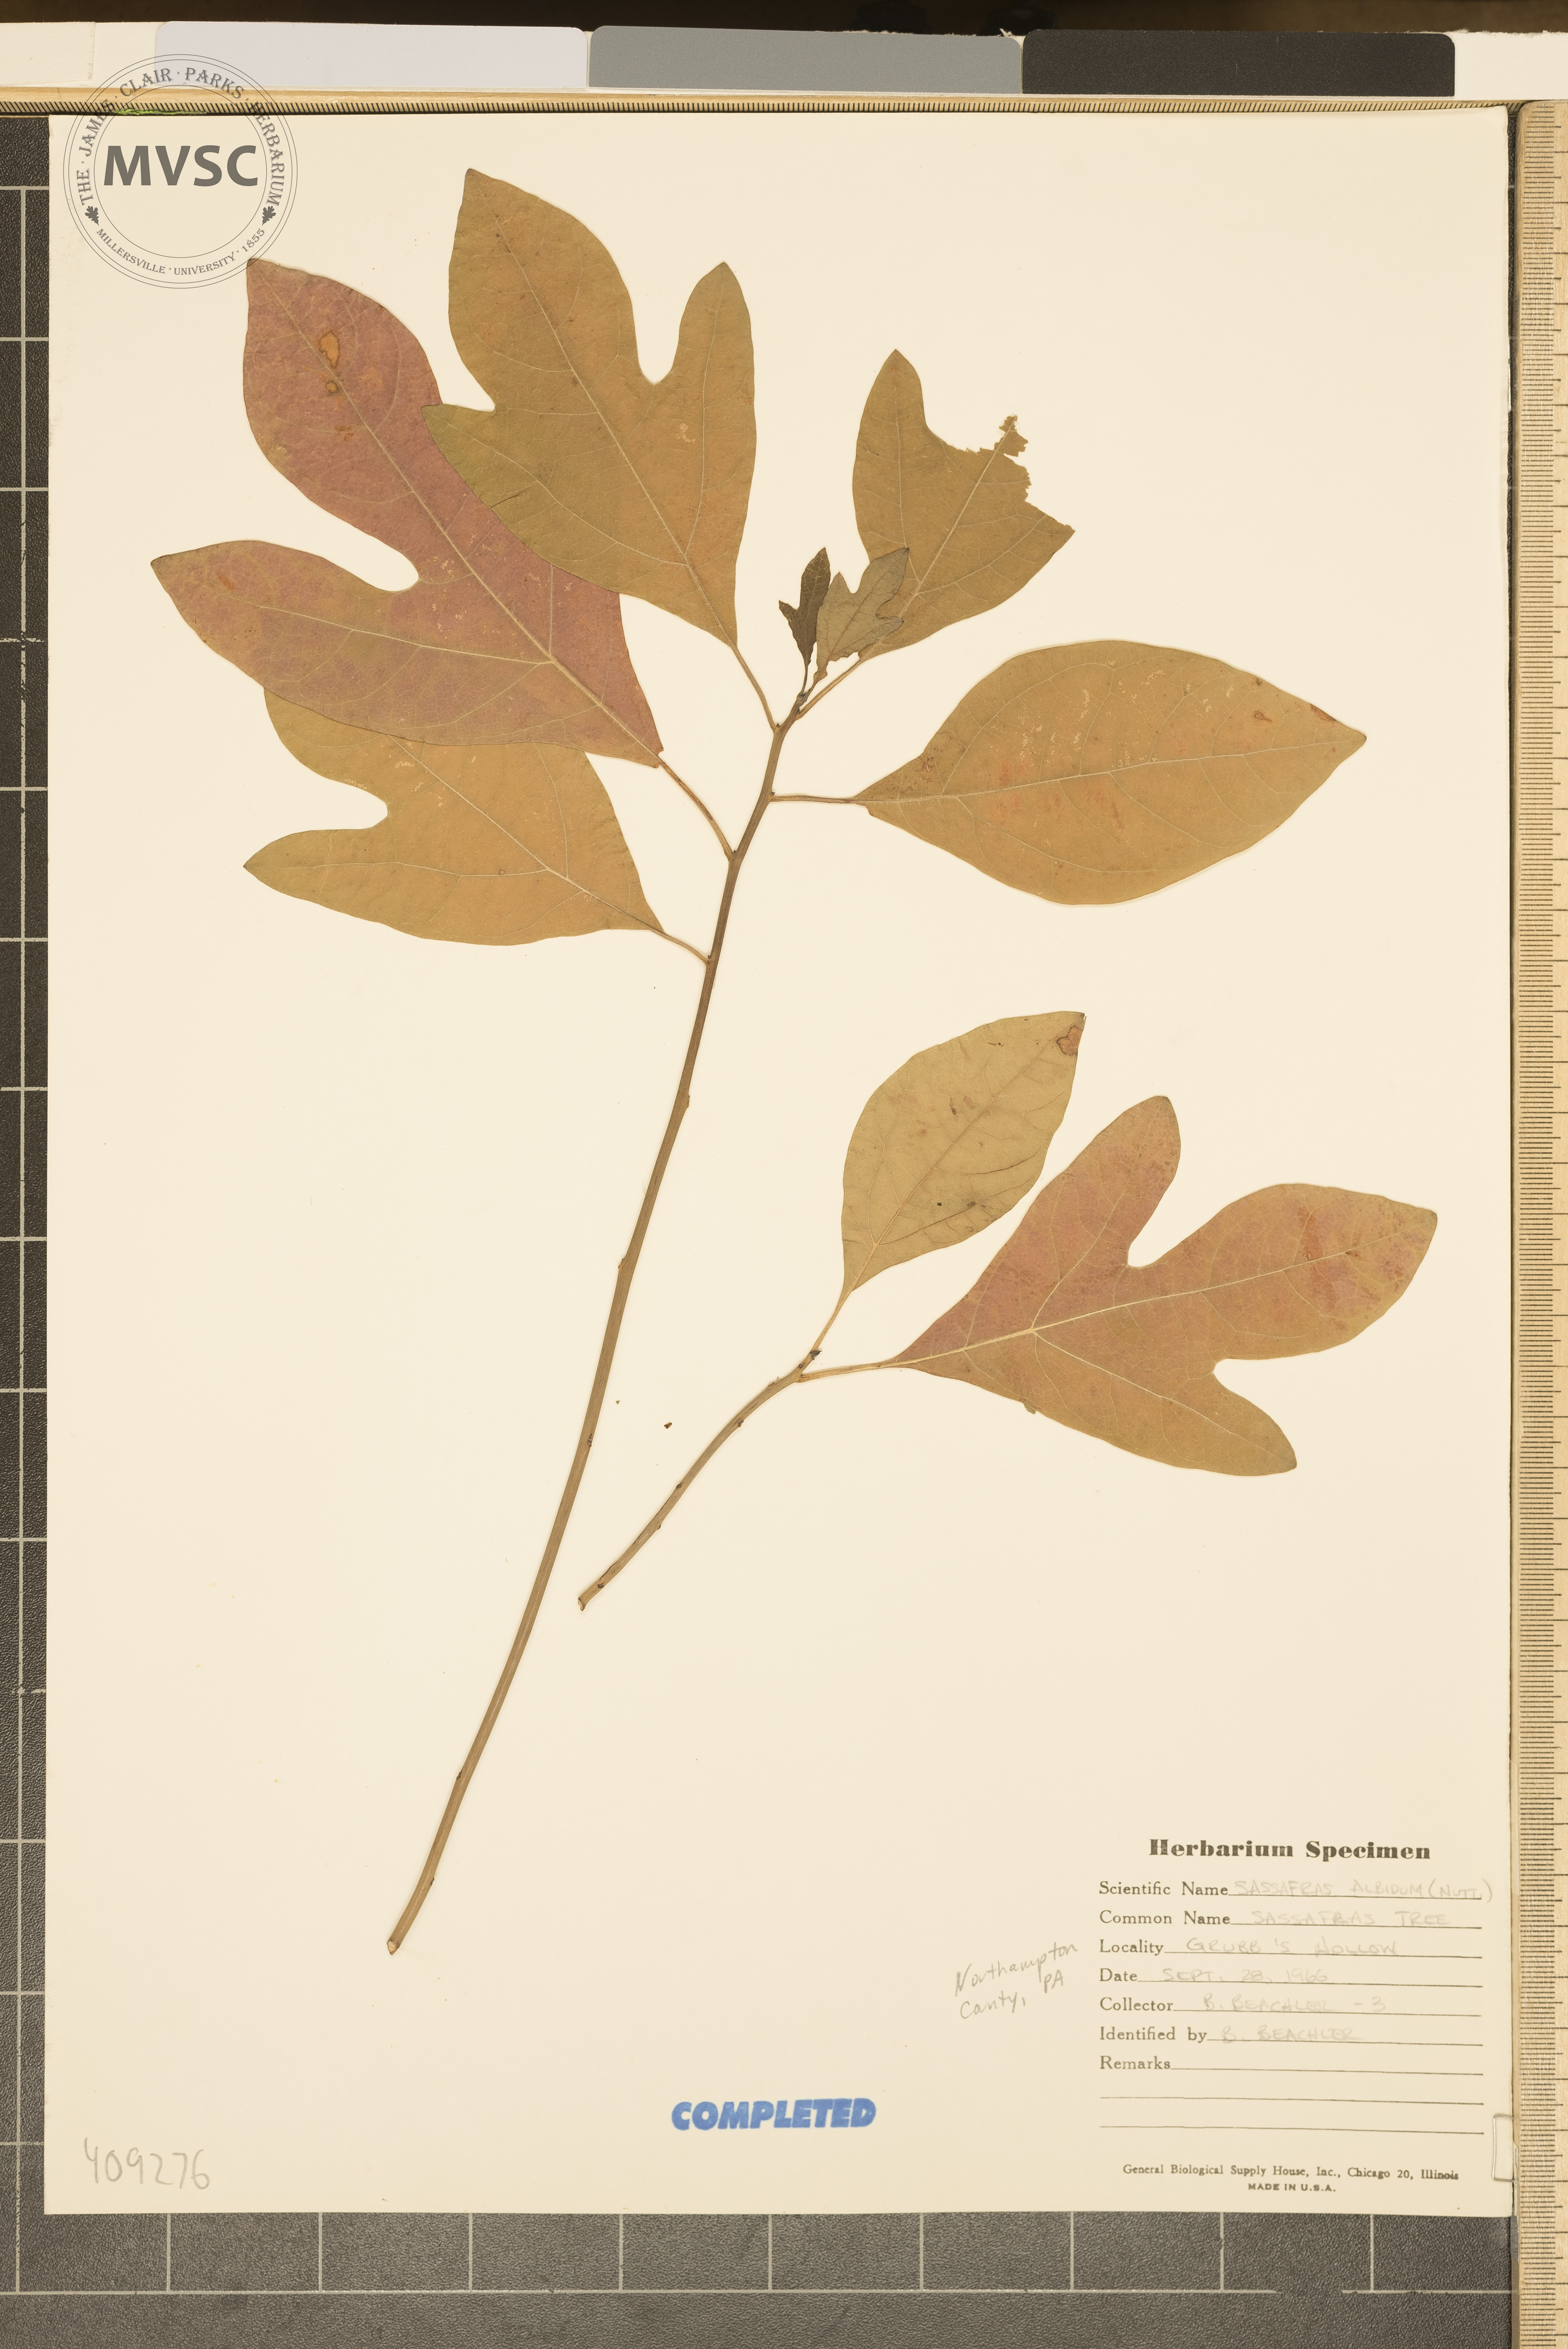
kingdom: Plantae
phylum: Tracheophyta
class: Magnoliopsida
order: Laurales
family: Lauraceae
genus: Sassafras
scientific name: Sassafras albidum
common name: Sassafras
